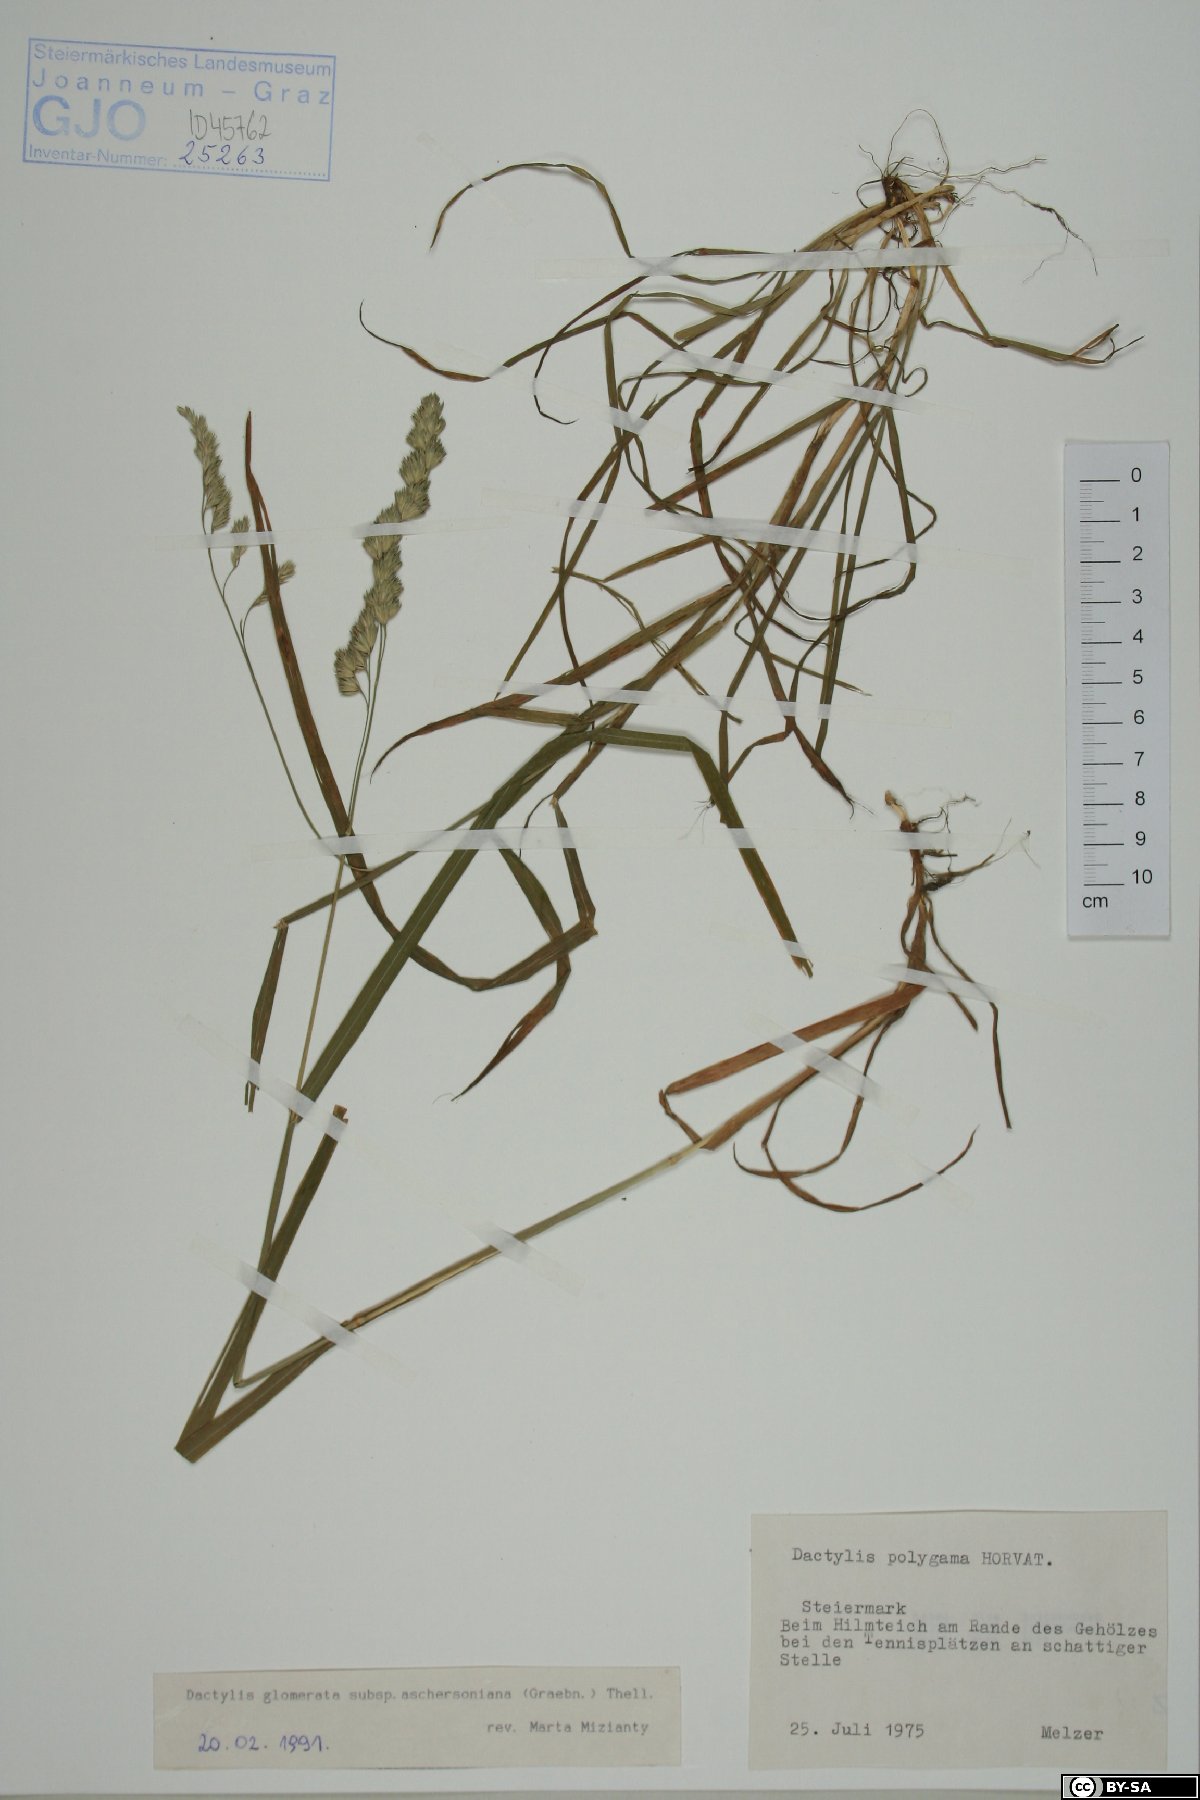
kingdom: Plantae
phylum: Tracheophyta
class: Liliopsida
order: Poales
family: Poaceae
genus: Dactylis
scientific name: Dactylis glomerata
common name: Orchardgrass
